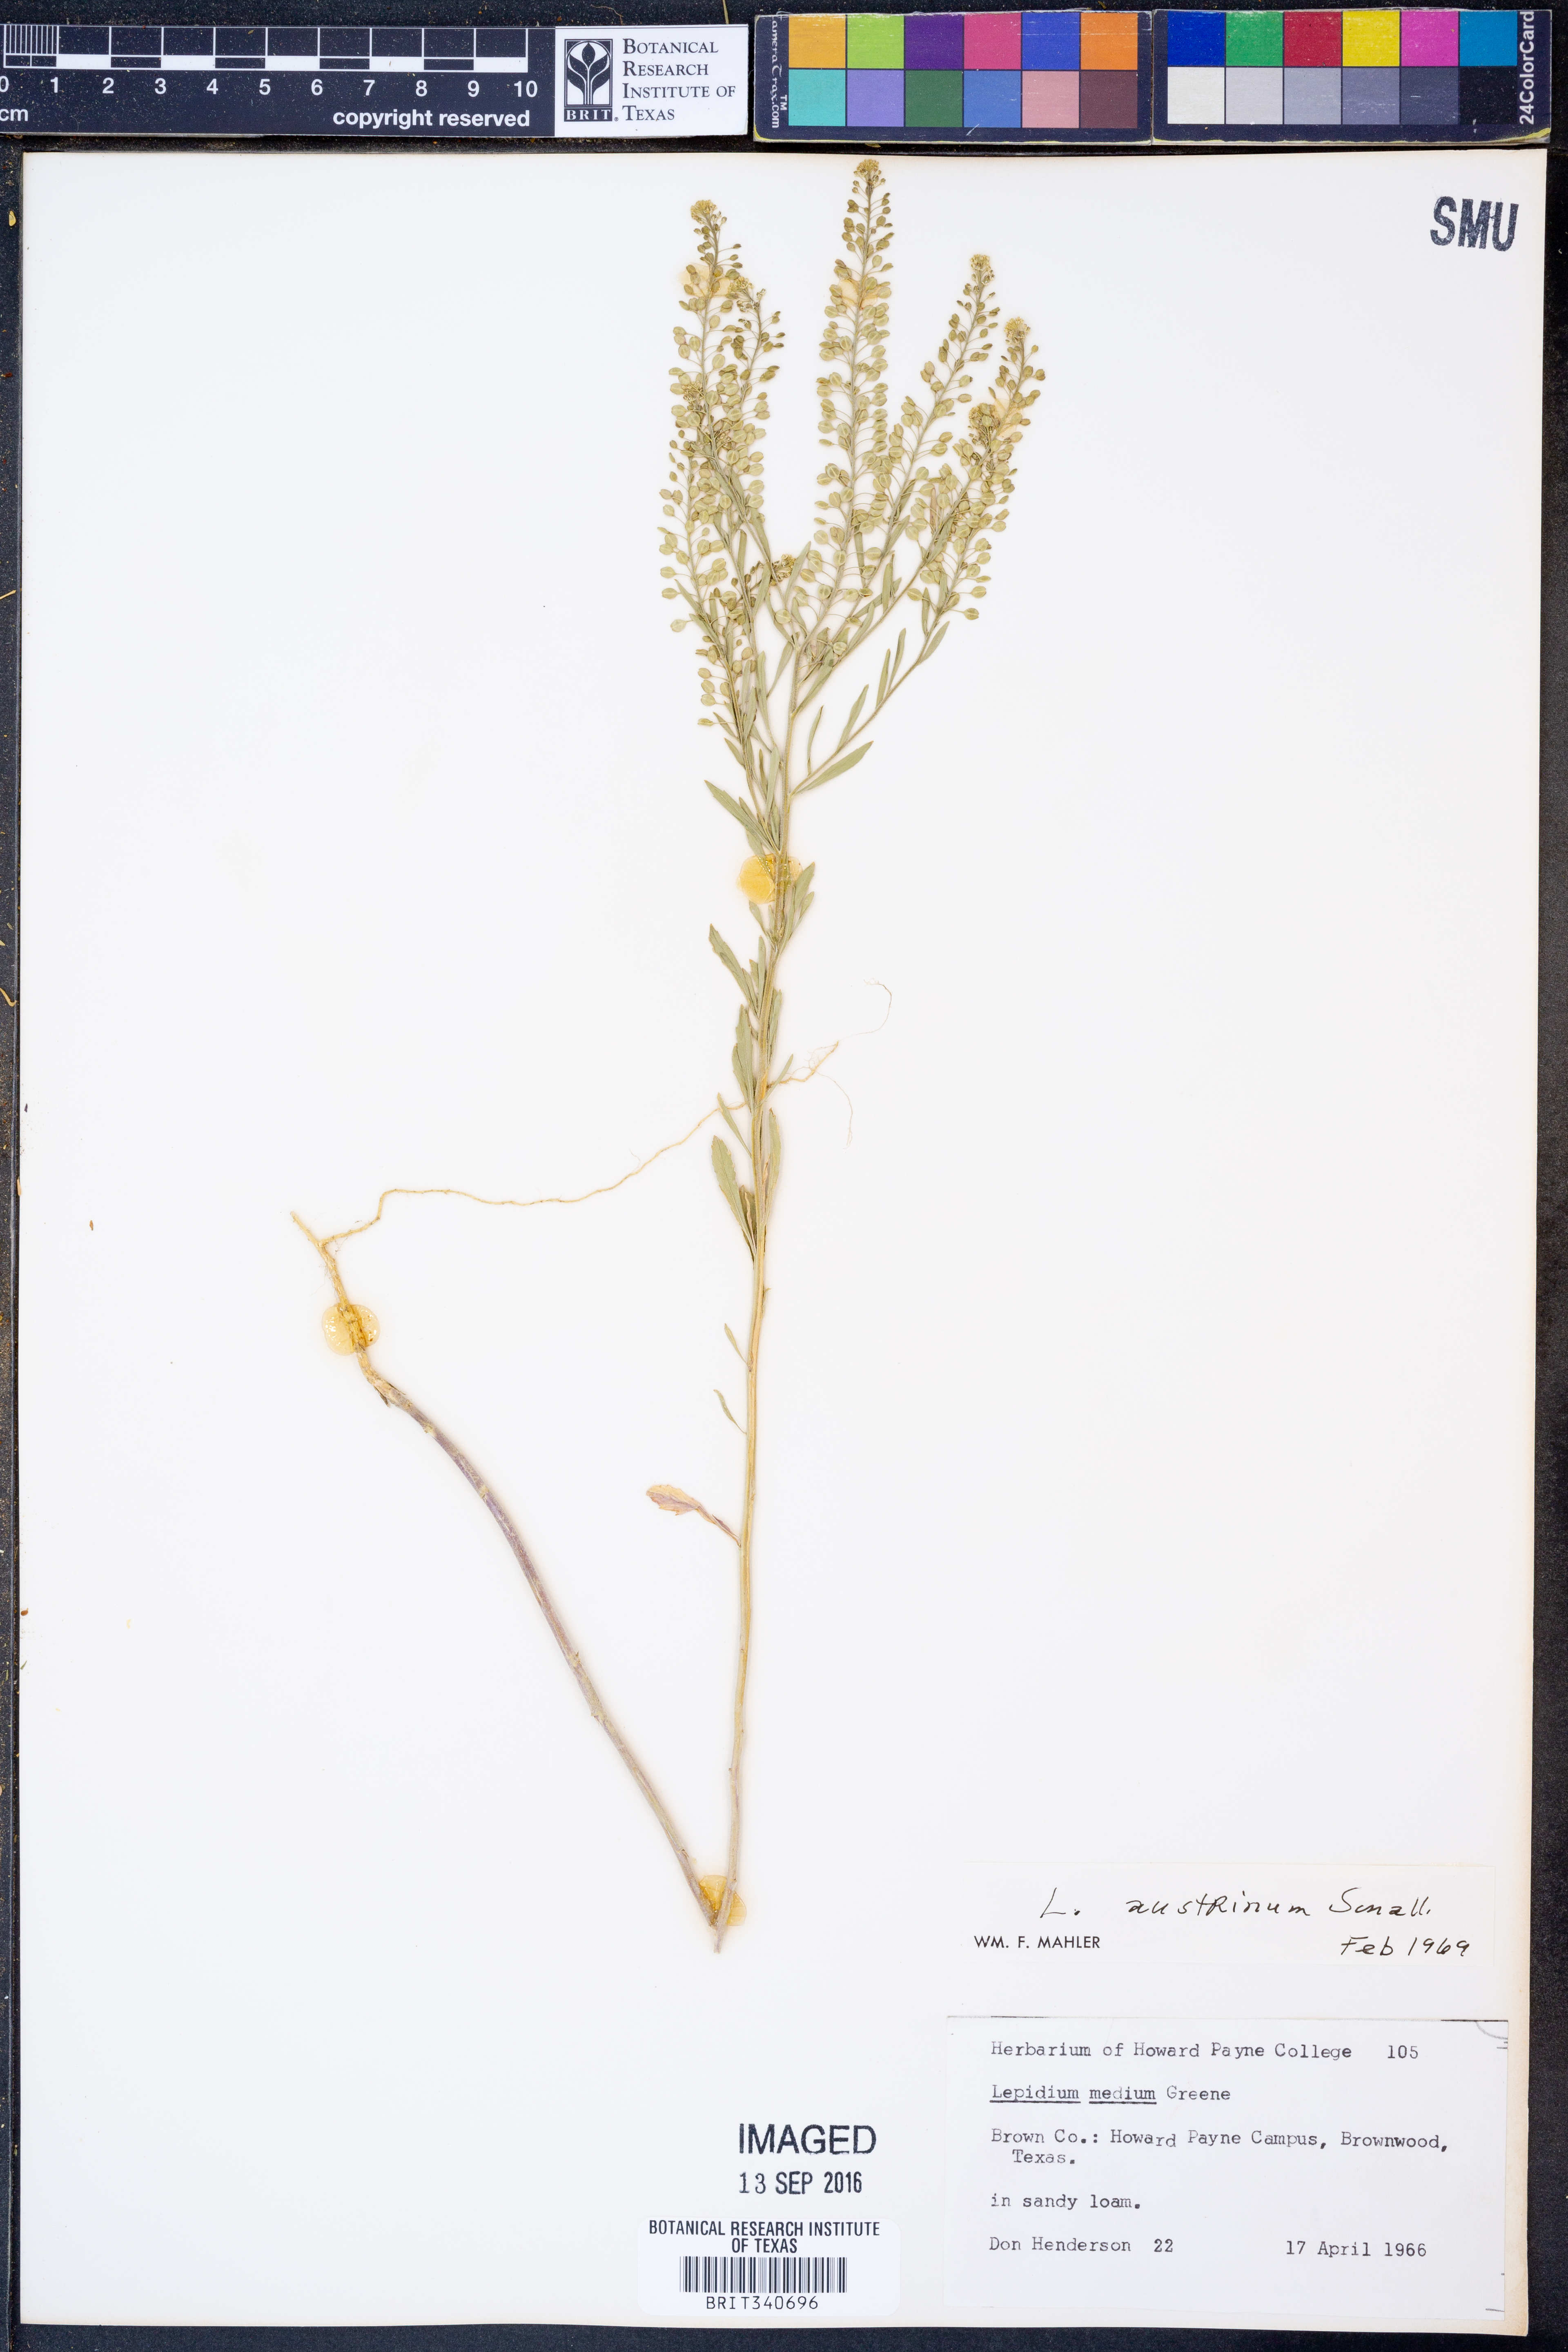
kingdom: Plantae
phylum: Tracheophyta
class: Magnoliopsida
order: Brassicales
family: Brassicaceae
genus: Lepidium
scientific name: Lepidium austrinum
